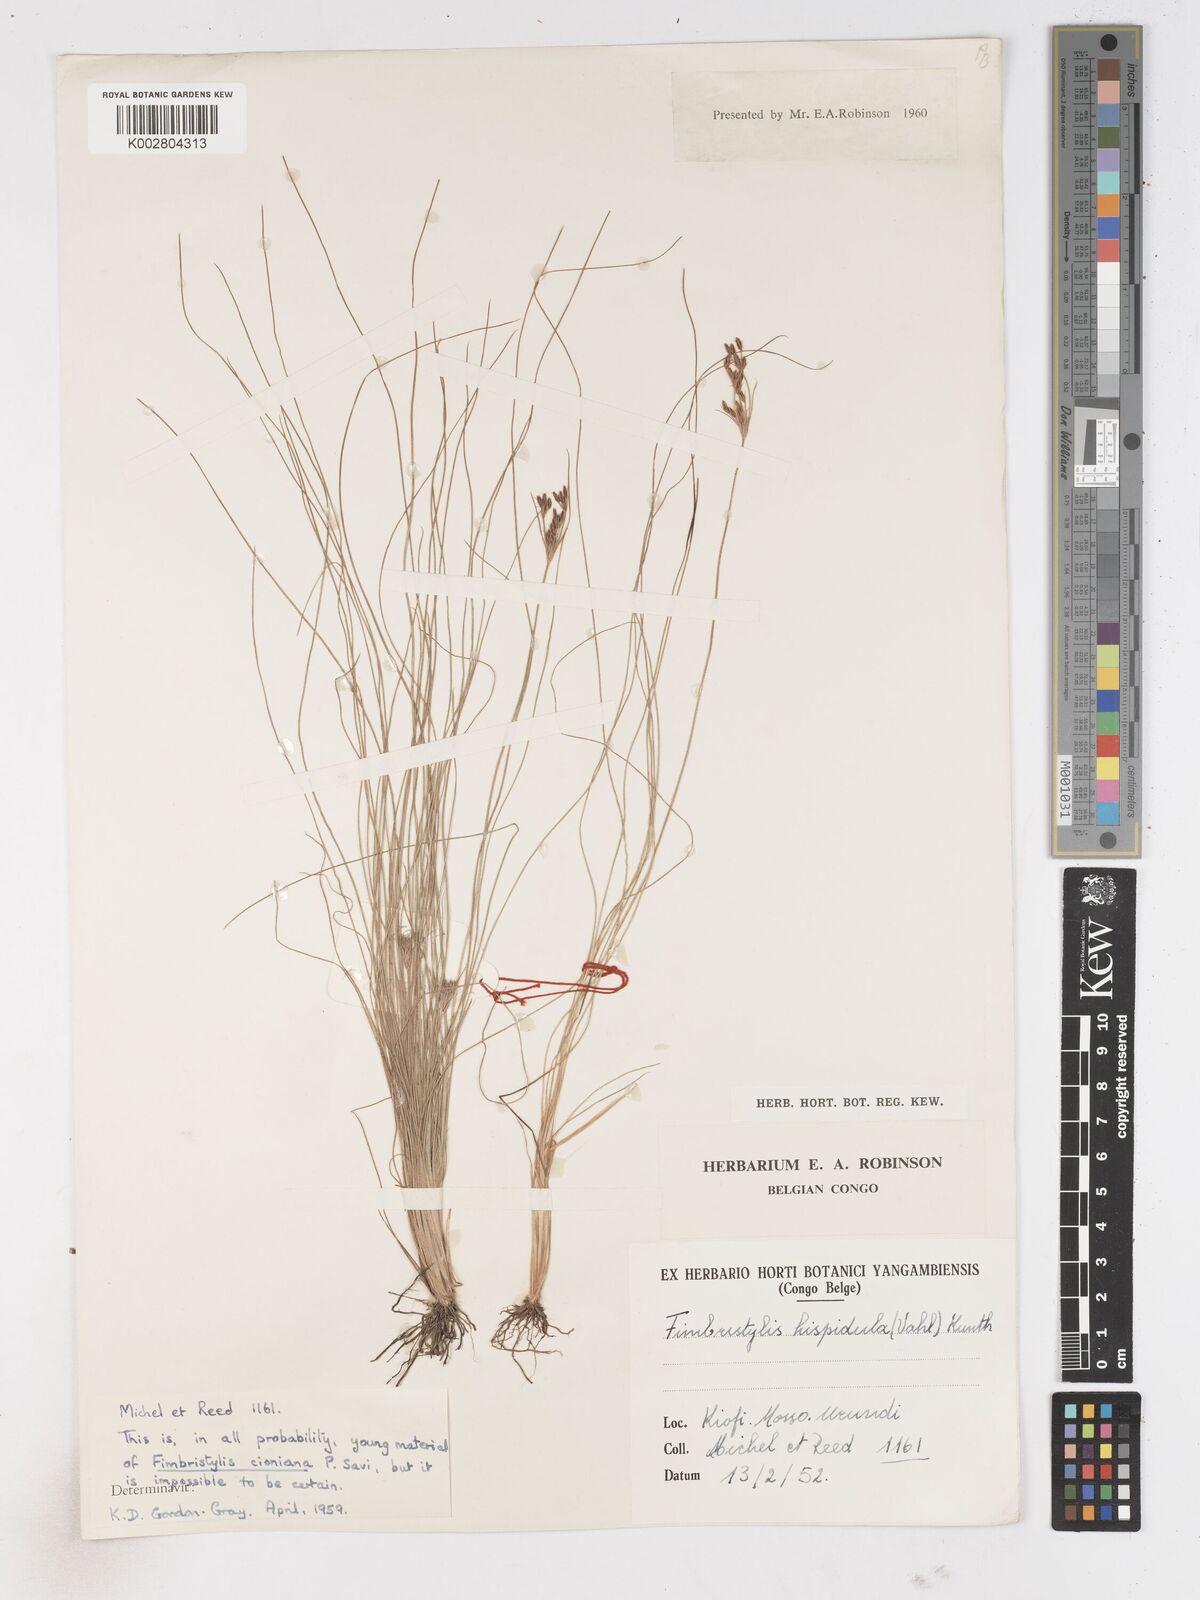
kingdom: Plantae
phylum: Tracheophyta
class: Liliopsida
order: Poales
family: Cyperaceae
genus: Fimbristylis
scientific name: Fimbristylis
